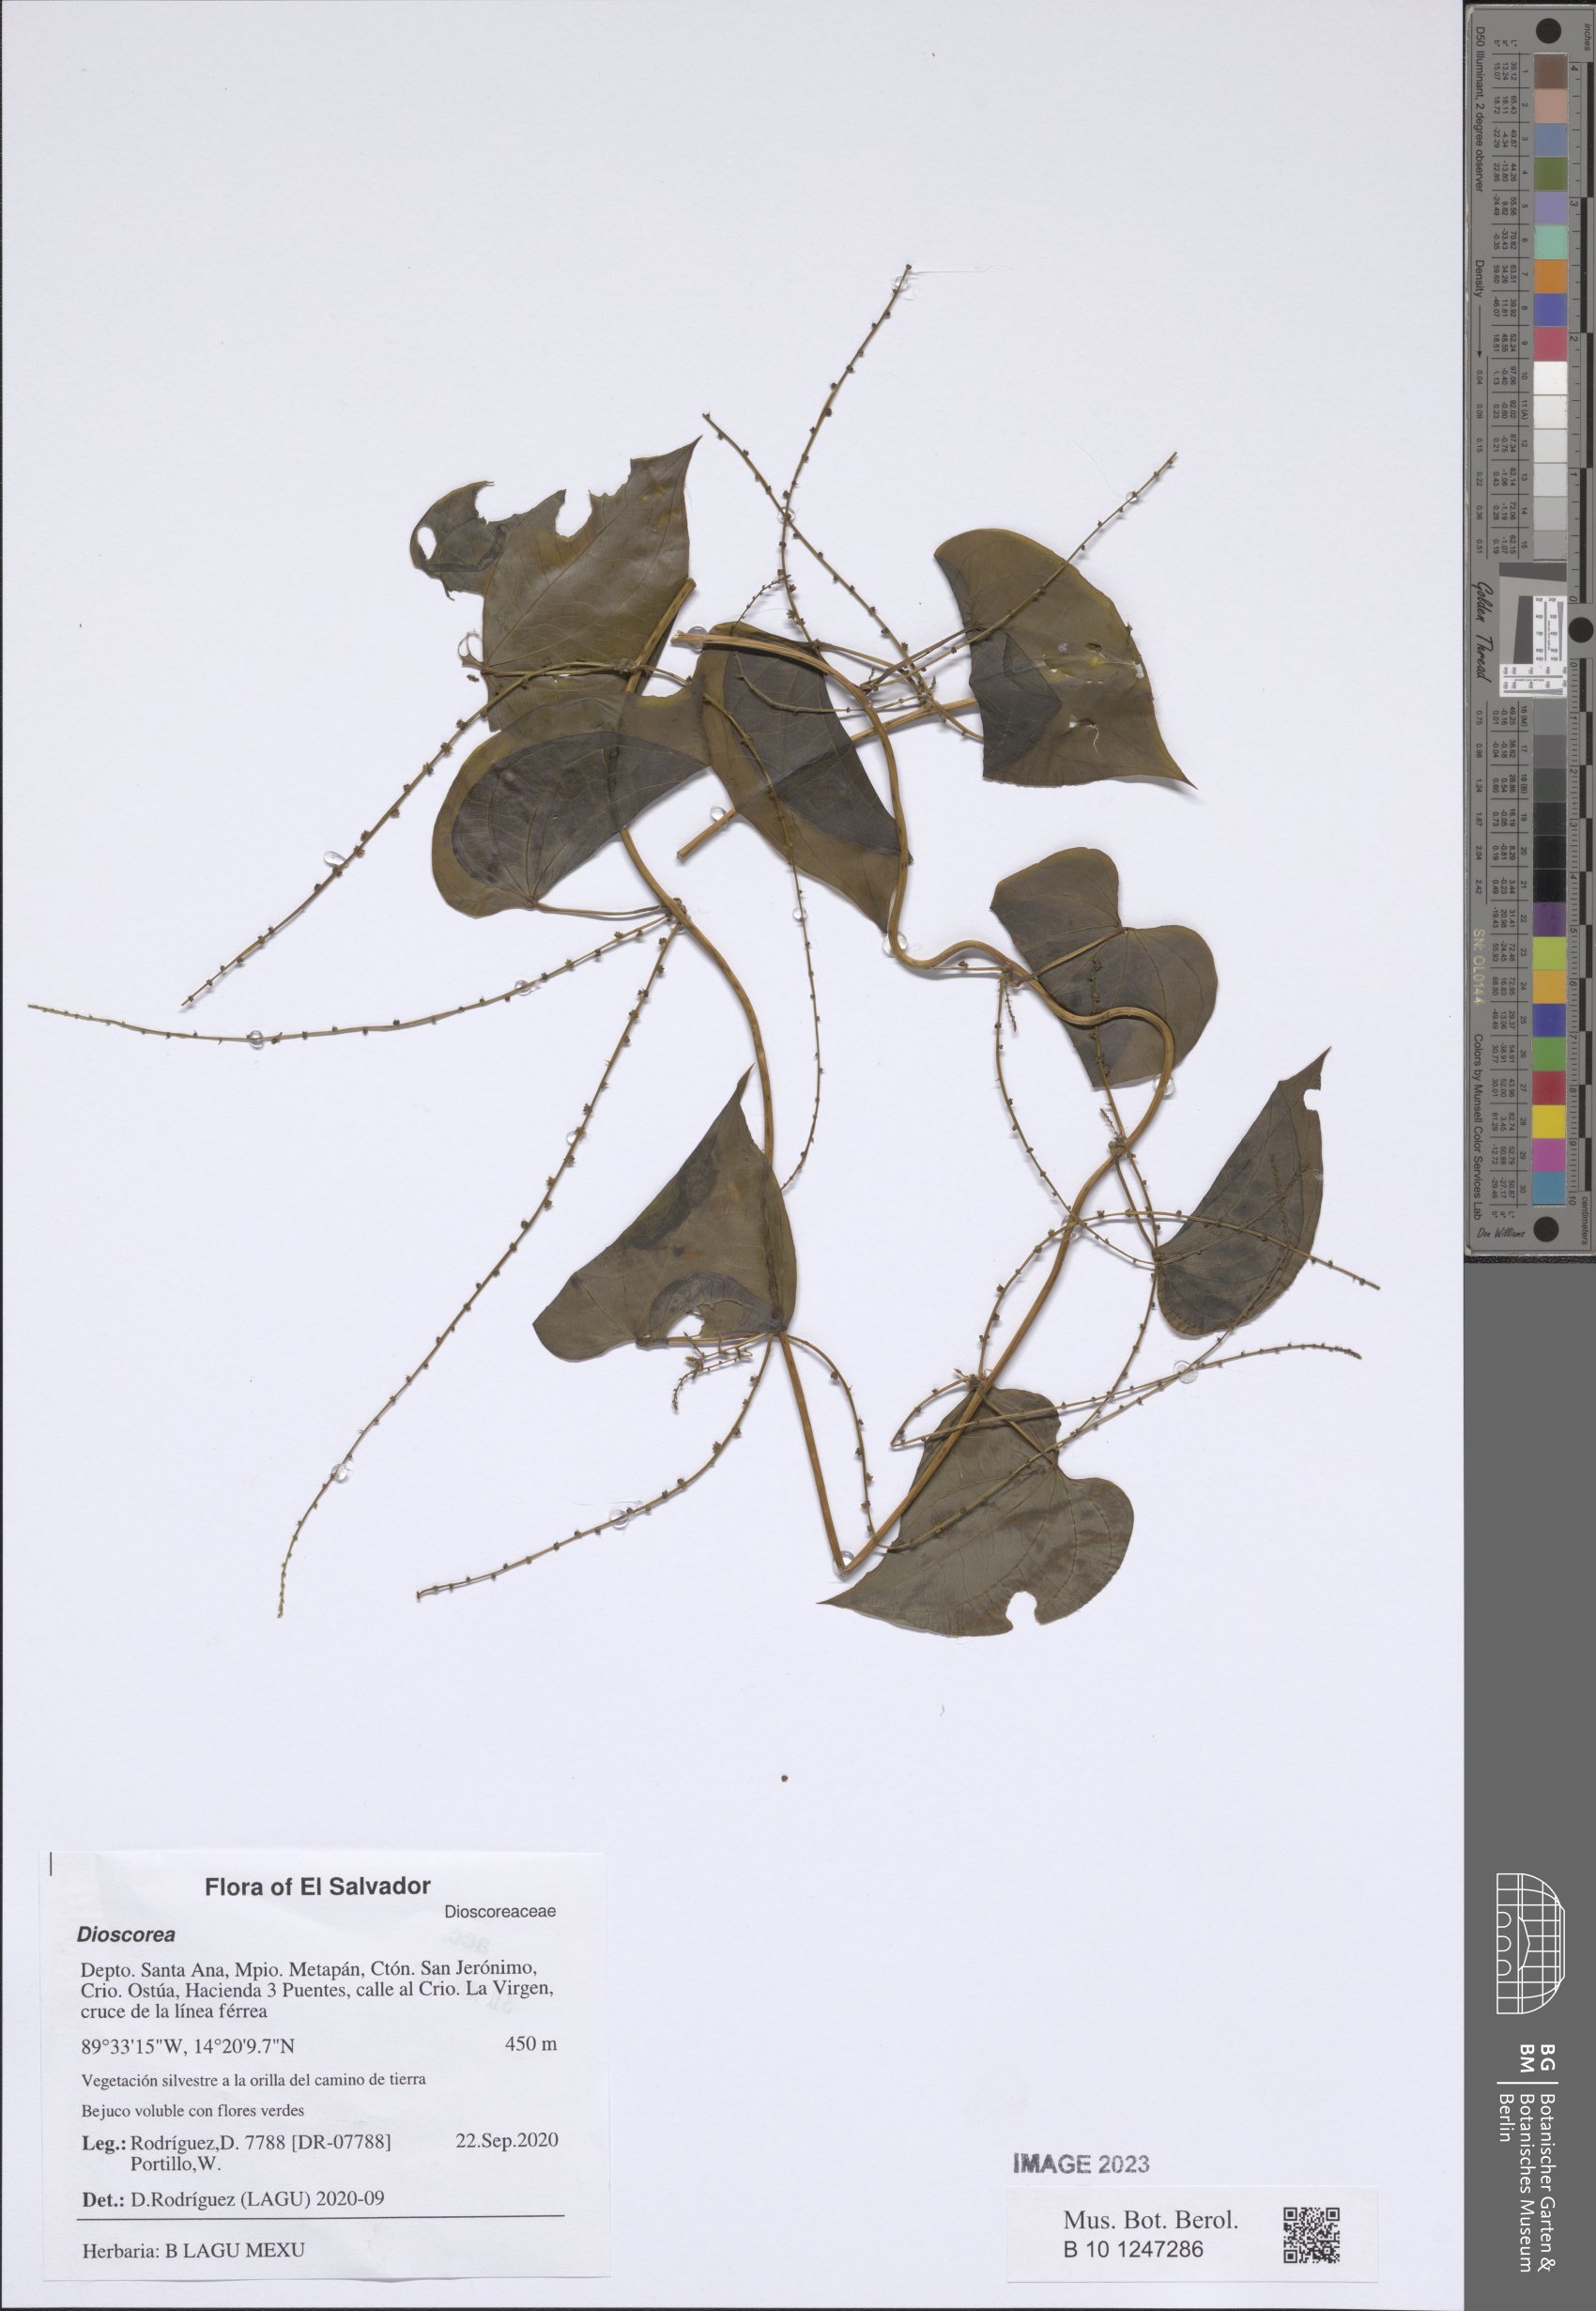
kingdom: Plantae
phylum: Tracheophyta
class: Liliopsida
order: Dioscoreales
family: Dioscoreaceae
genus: Dioscorea
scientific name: Dioscorea
